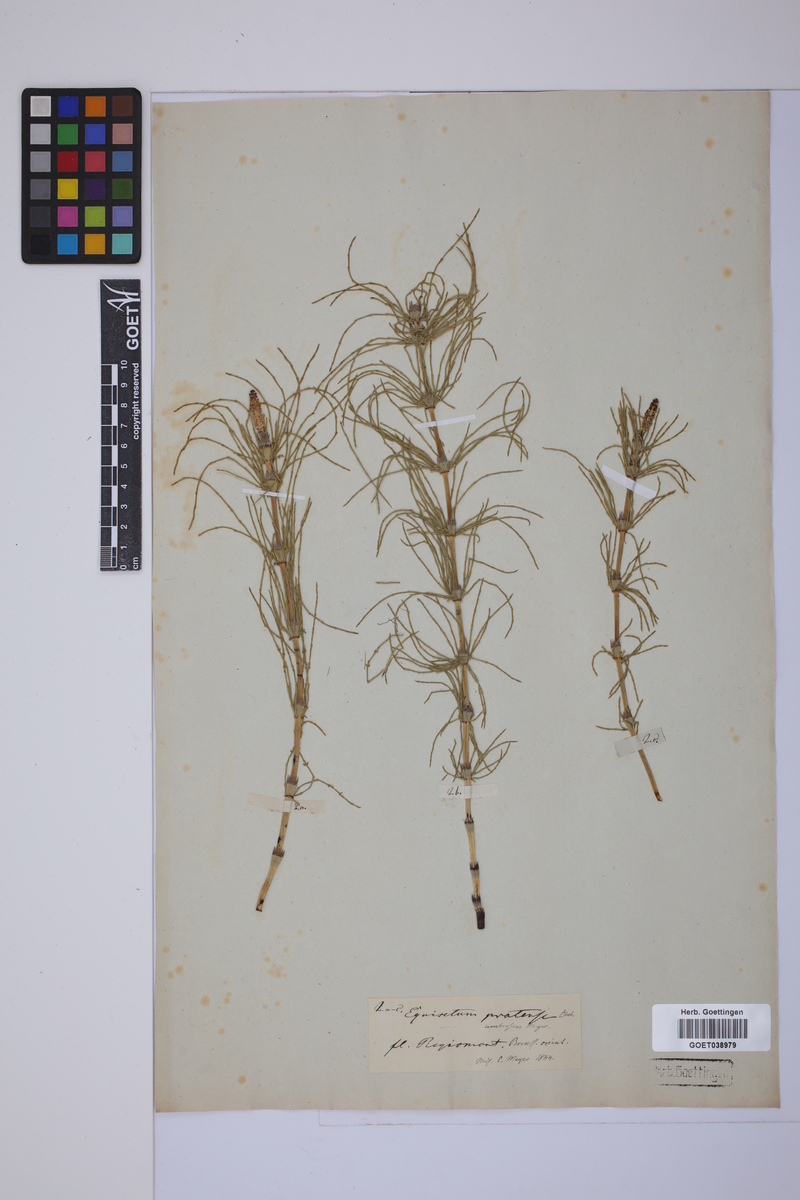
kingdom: Plantae
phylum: Tracheophyta
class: Polypodiopsida
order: Equisetales
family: Equisetaceae
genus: Equisetum
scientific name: Equisetum pratense
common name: Meadow horsetail
